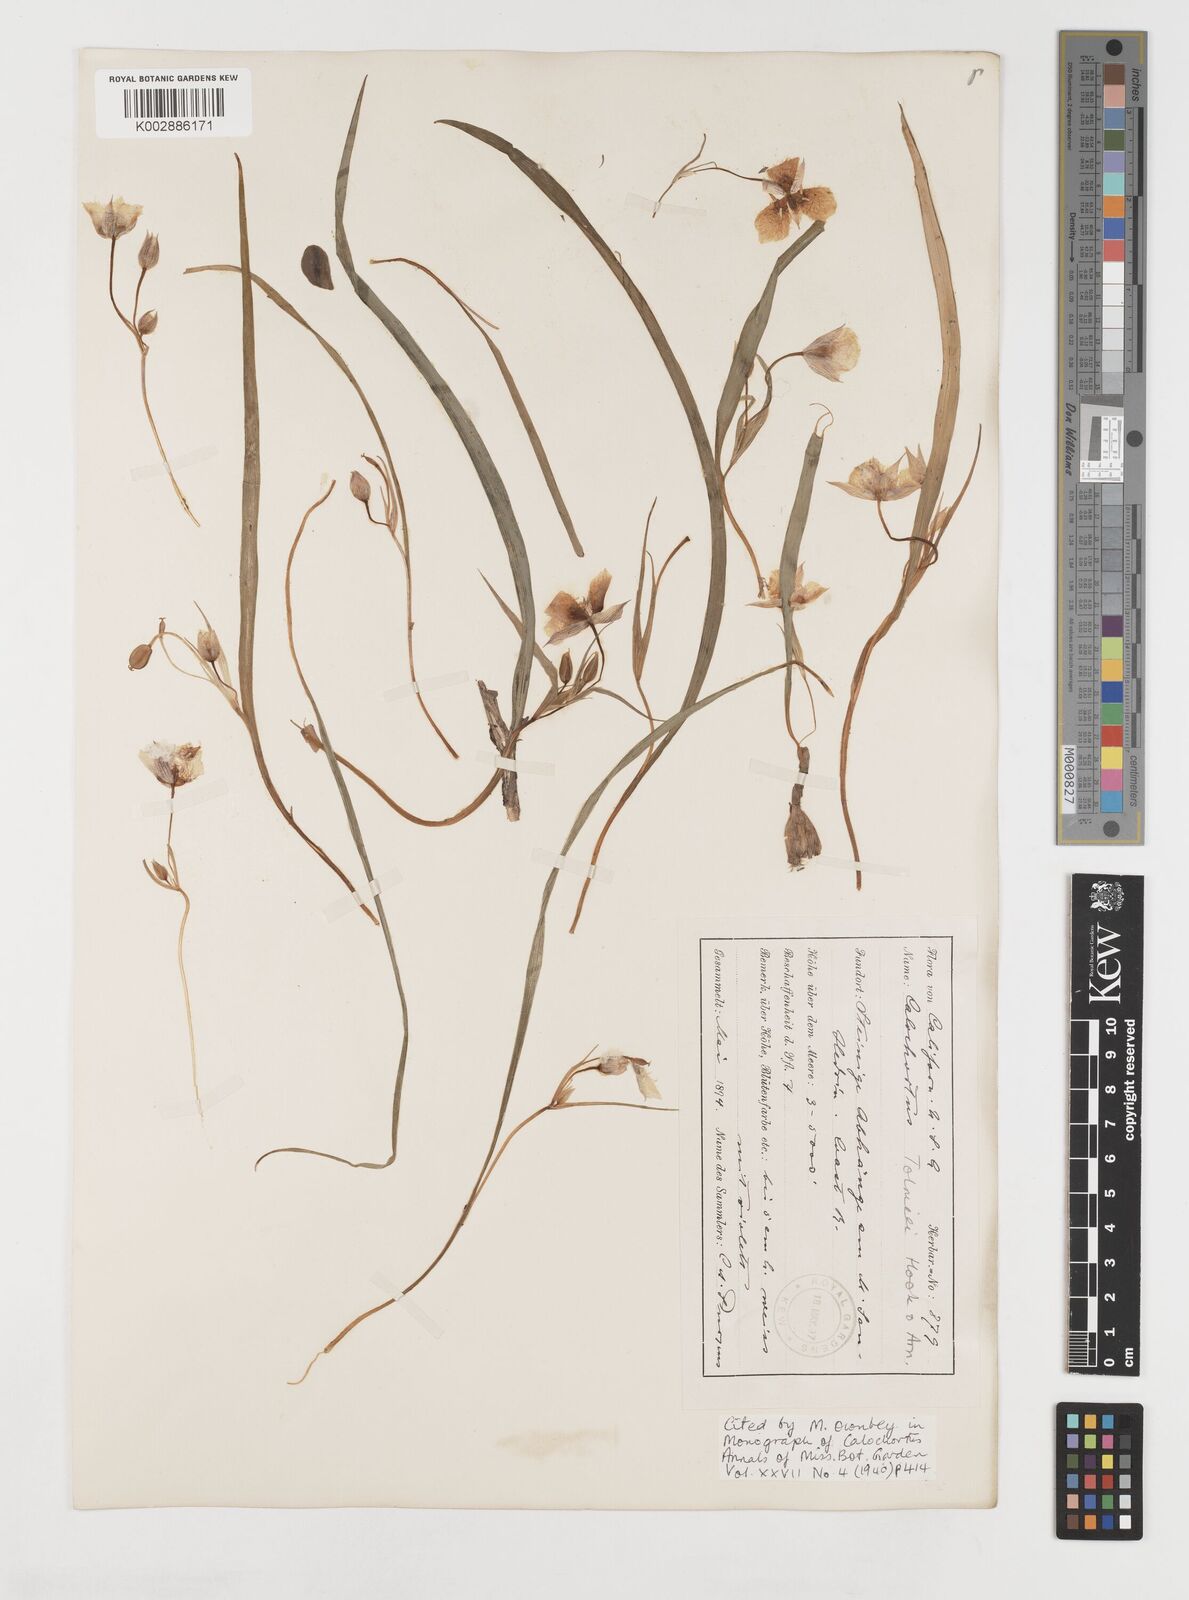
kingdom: Plantae
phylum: Tracheophyta
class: Liliopsida
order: Liliales
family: Liliaceae
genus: Calochortus
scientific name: Calochortus tolmiei
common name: Pussy-ears
